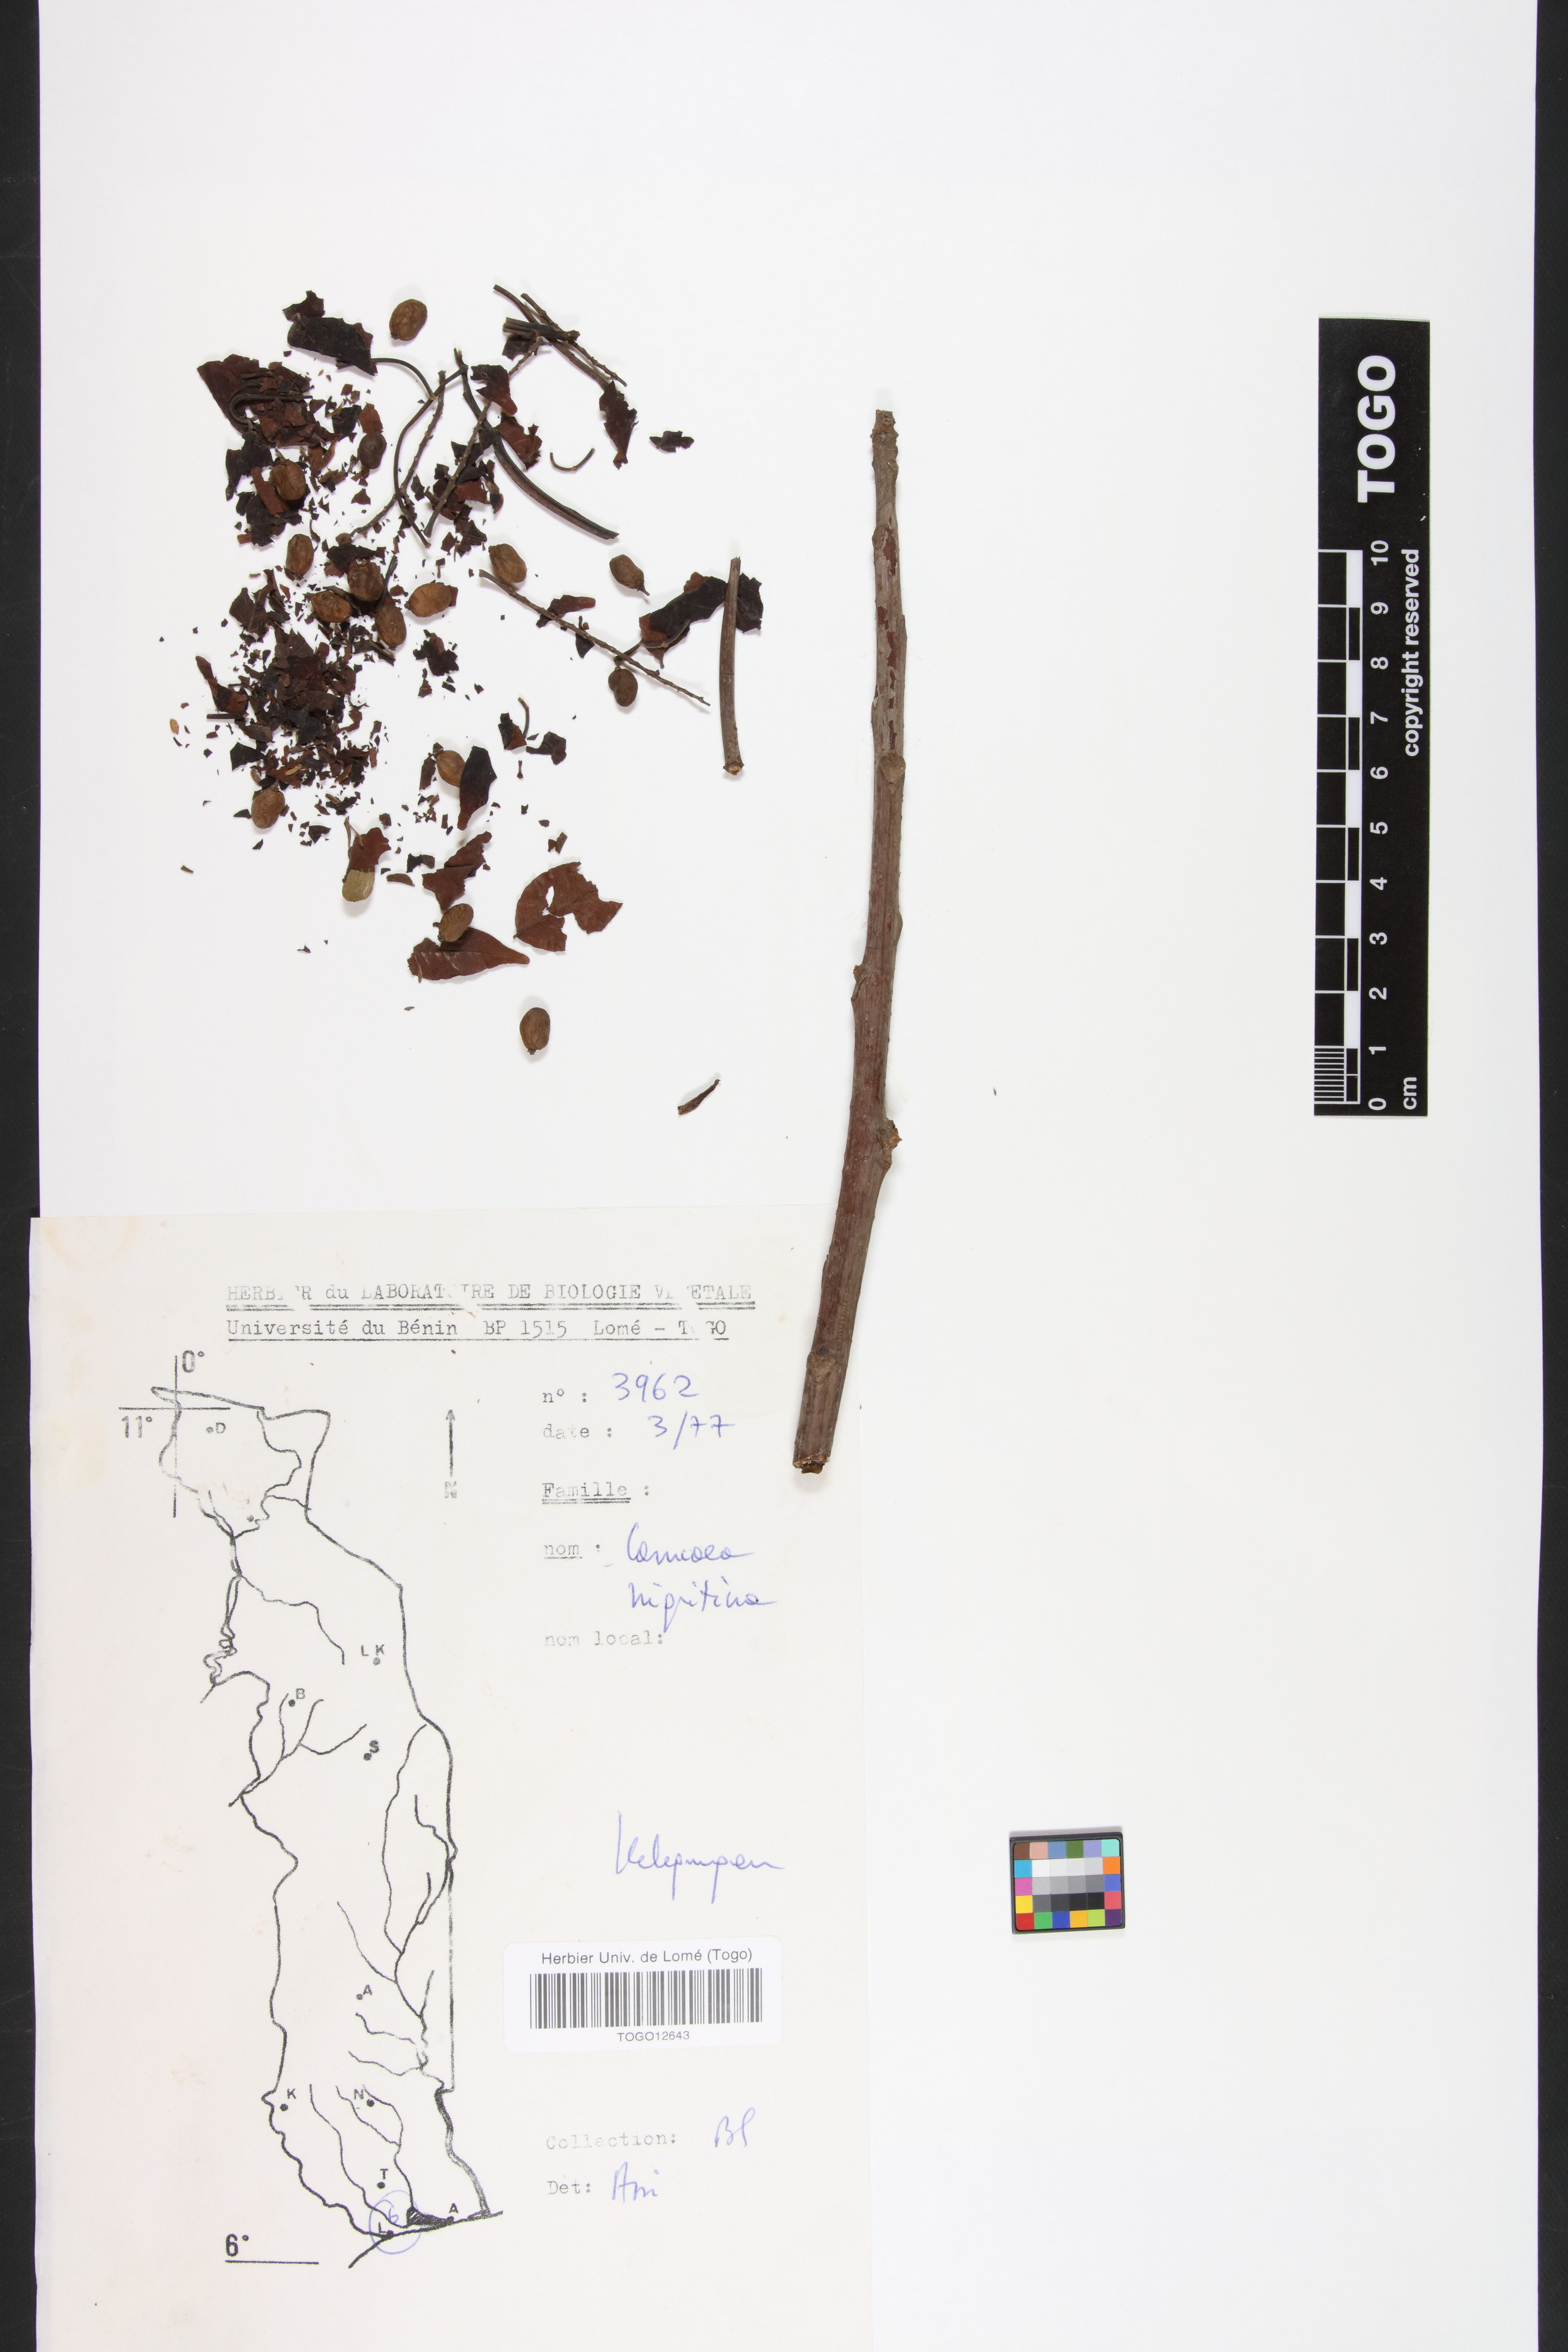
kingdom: Plantae
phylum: Tracheophyta
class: Magnoliopsida
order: Sapindales
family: Anacardiaceae
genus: Lannea
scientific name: Lannea nigritana
